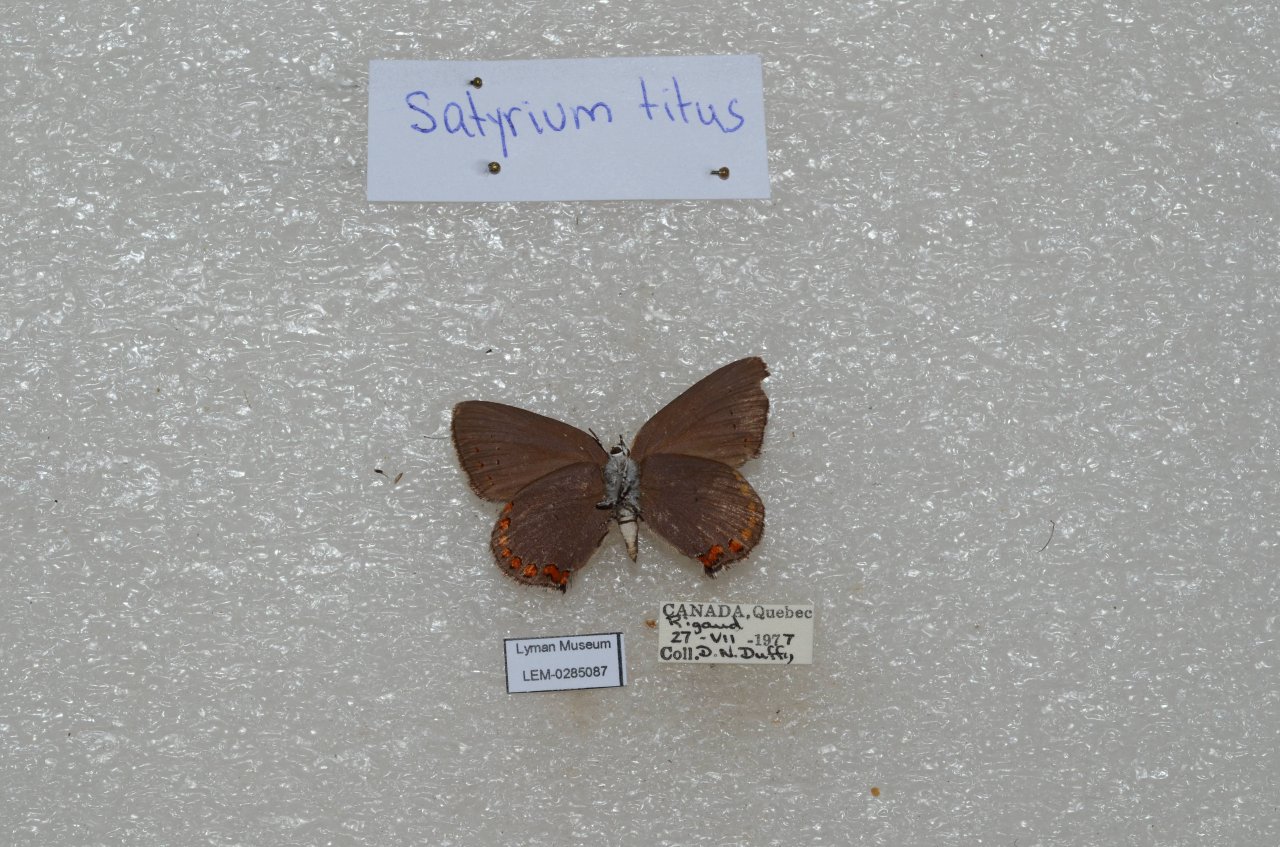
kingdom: Animalia
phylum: Arthropoda
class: Insecta
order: Lepidoptera
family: Lycaenidae
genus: Harkenclenus
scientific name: Harkenclenus titus
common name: Coral Hairstreak
